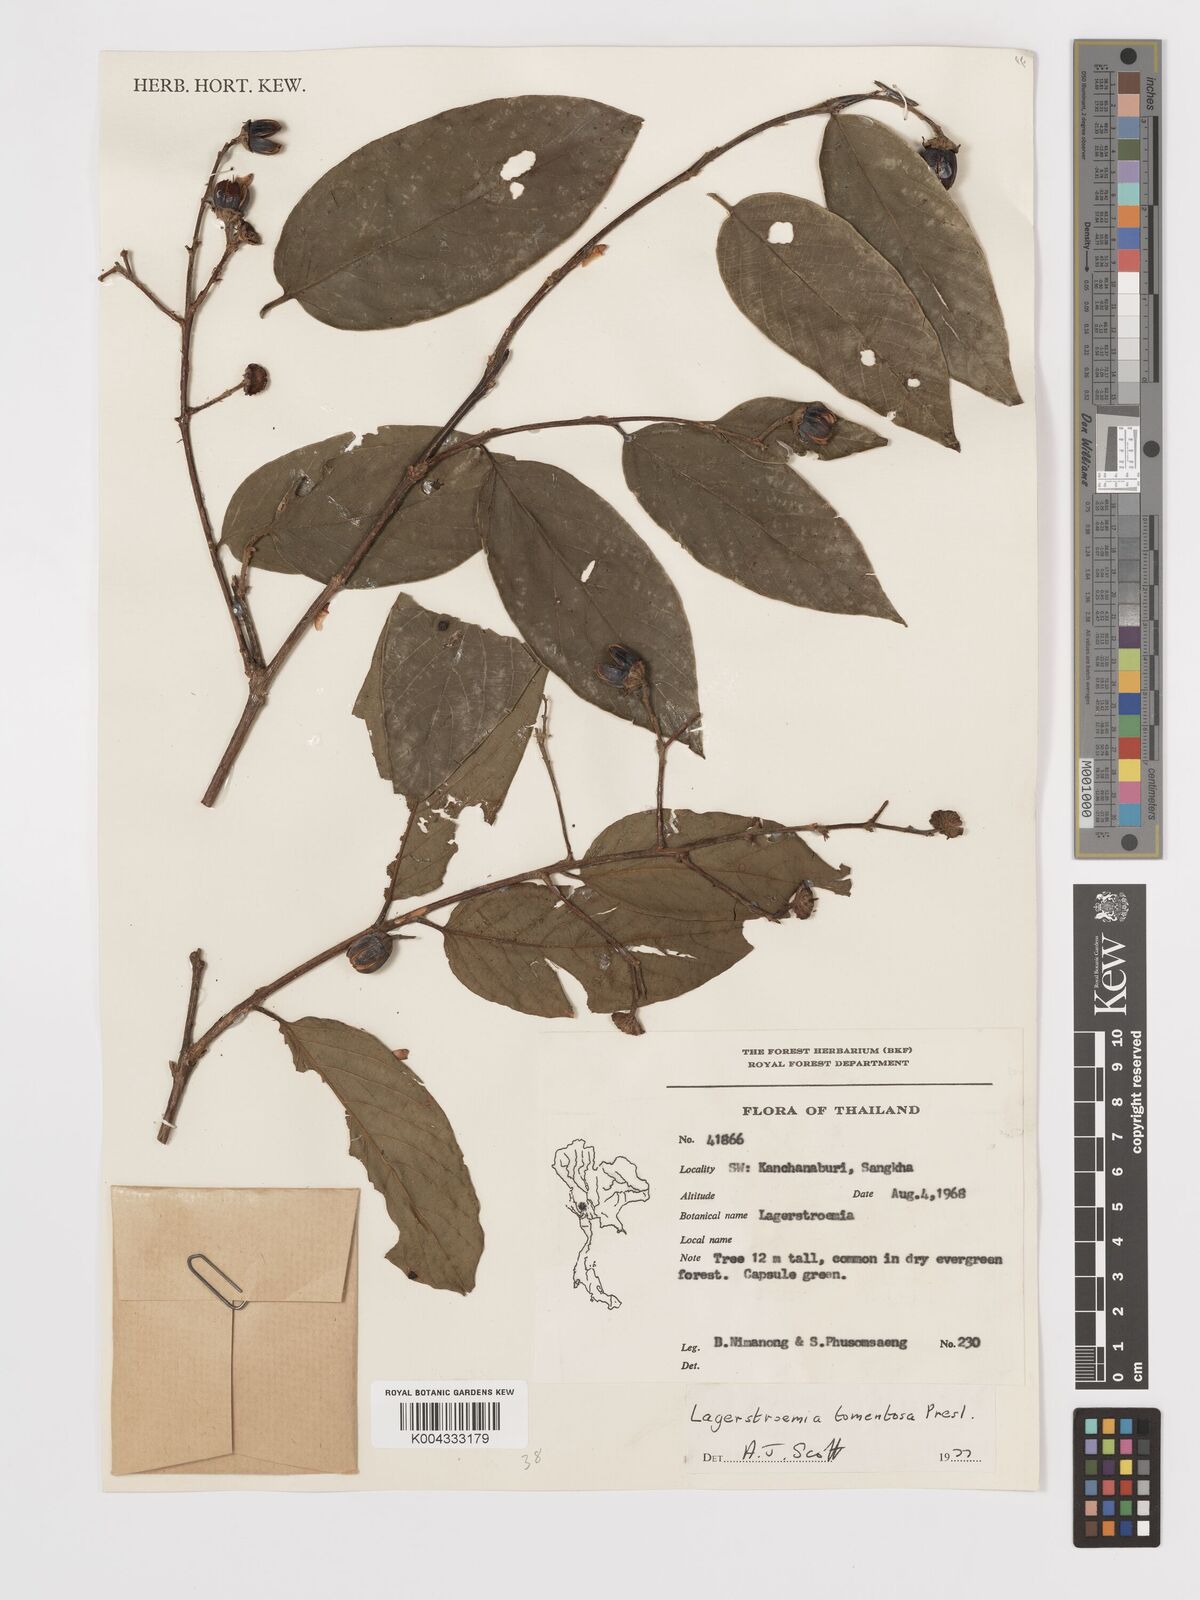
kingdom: Plantae
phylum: Tracheophyta
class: Magnoliopsida
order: Myrtales
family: Lythraceae
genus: Lagerstroemia
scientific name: Lagerstroemia tomentosa
